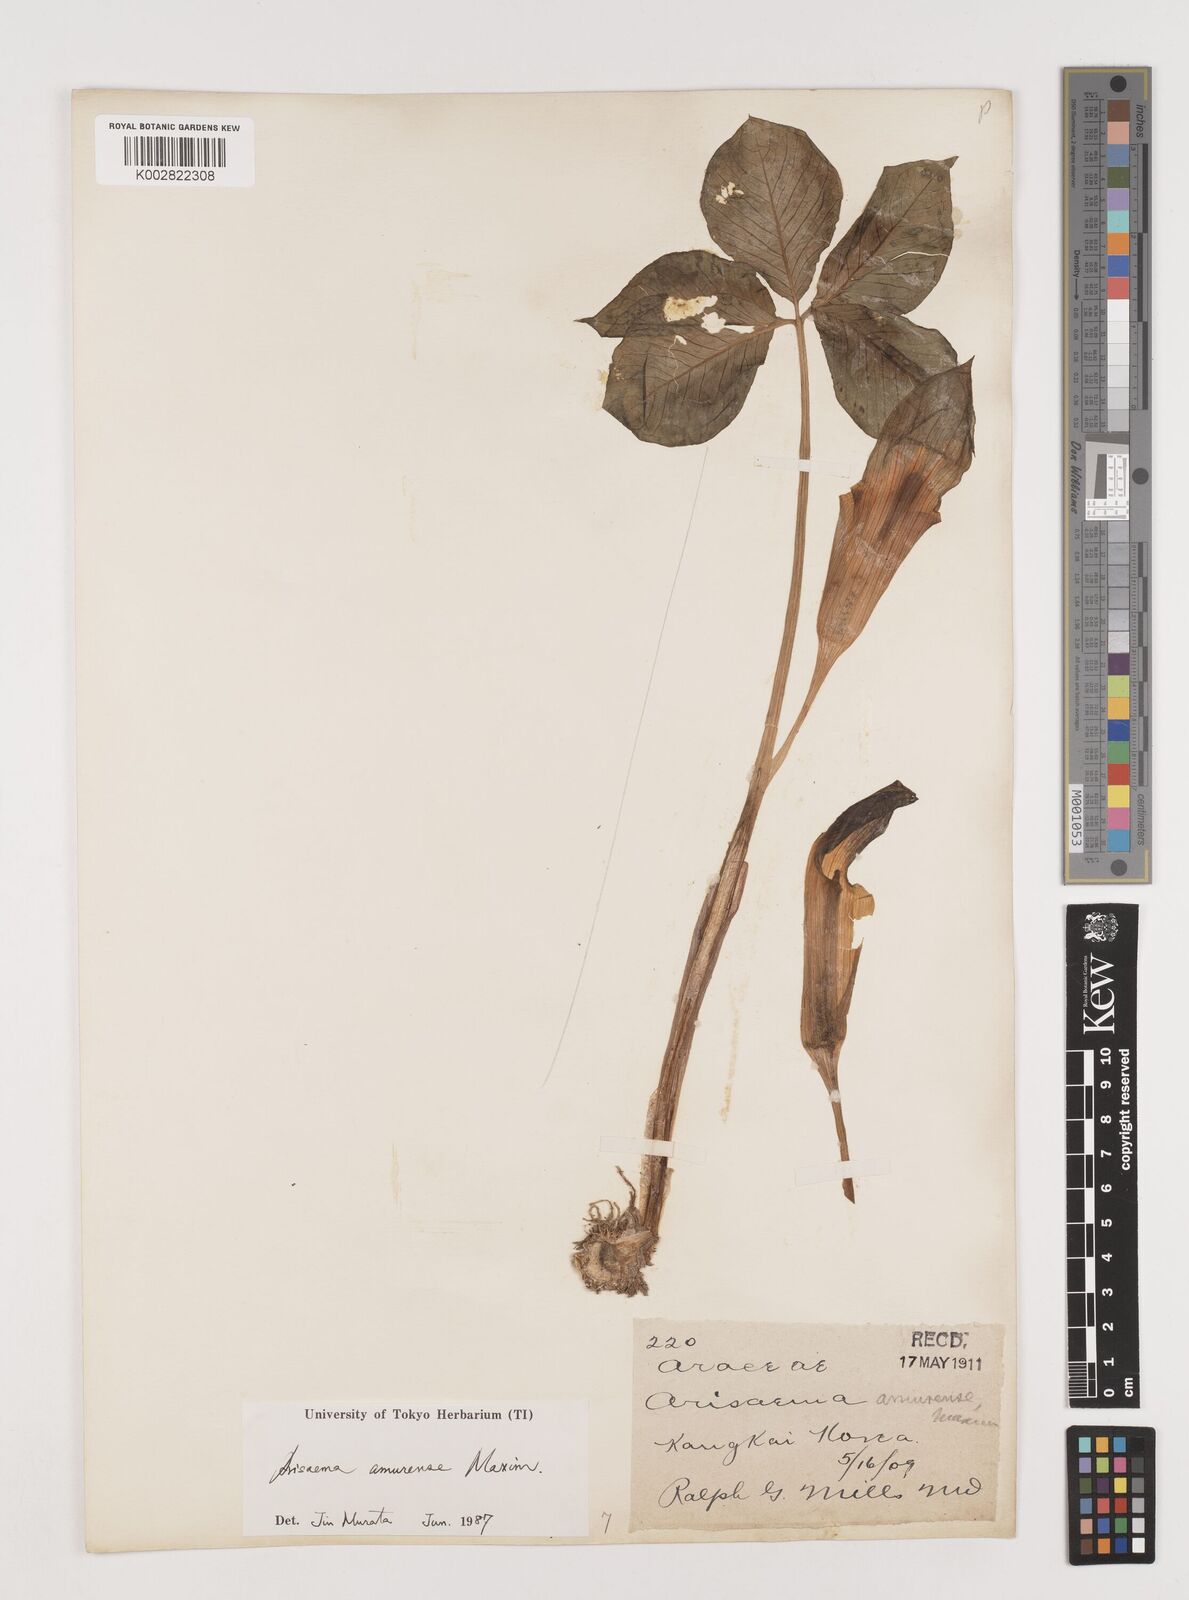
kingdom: Plantae
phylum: Tracheophyta
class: Liliopsida
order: Alismatales
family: Araceae
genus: Arisaema
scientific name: Arisaema amurense
